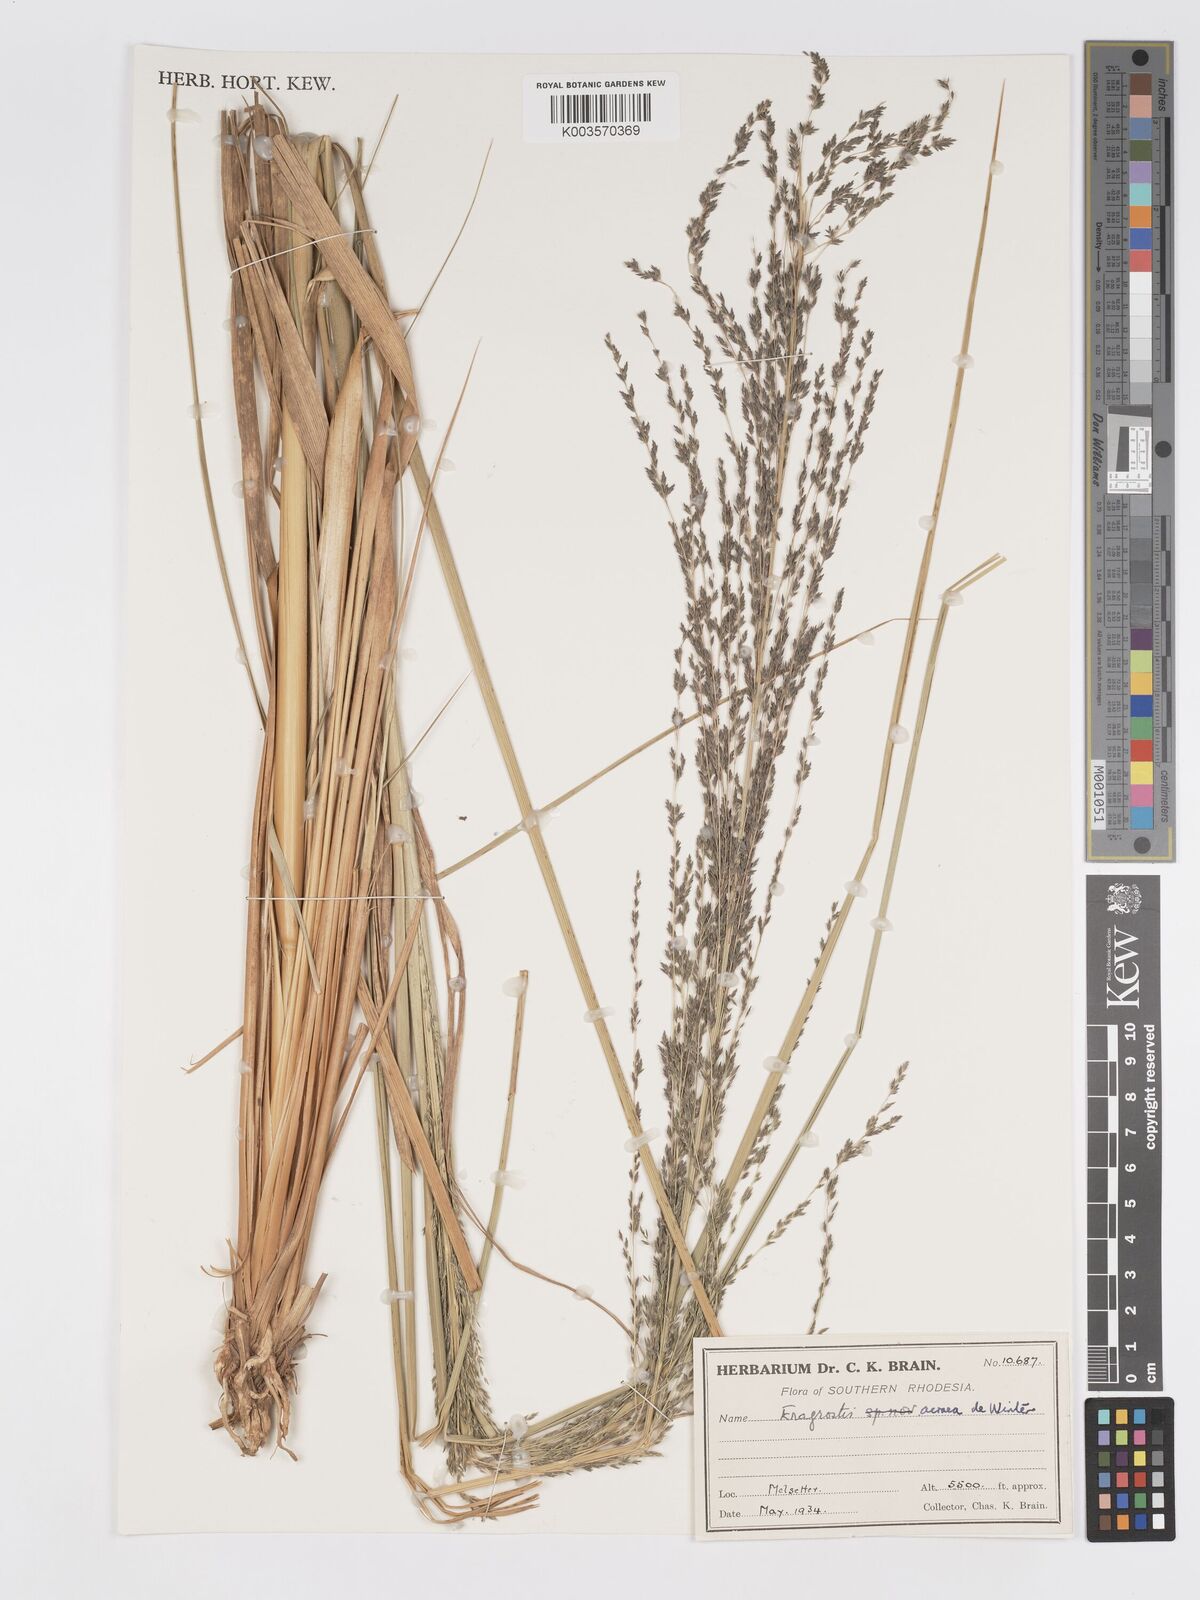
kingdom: Plantae
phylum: Tracheophyta
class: Liliopsida
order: Poales
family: Poaceae
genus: Eragrostis
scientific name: Eragrostis acraea
